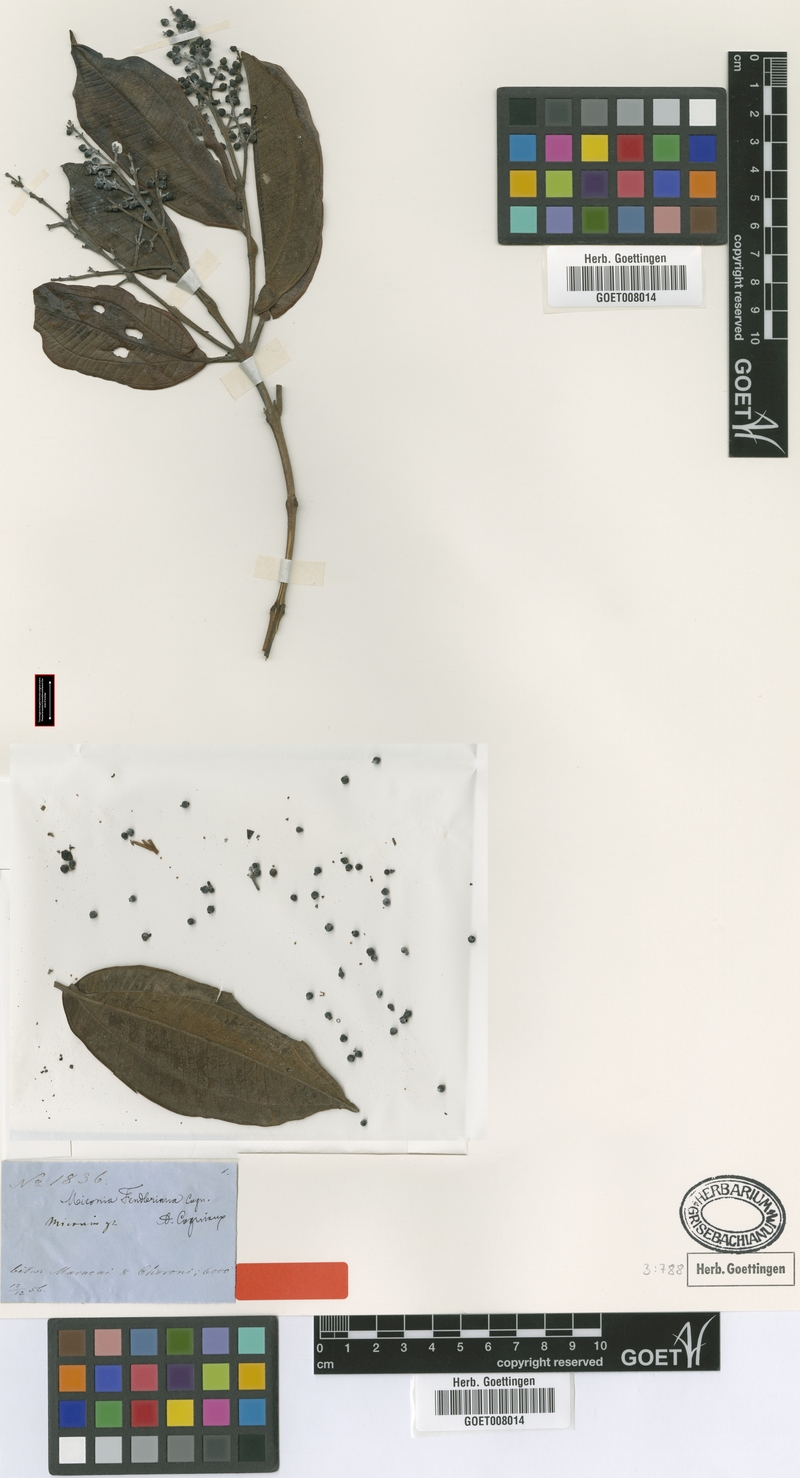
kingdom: Plantae
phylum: Tracheophyta
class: Magnoliopsida
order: Myrtales
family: Melastomataceae
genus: Miconia
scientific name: Miconia phaeophylla
